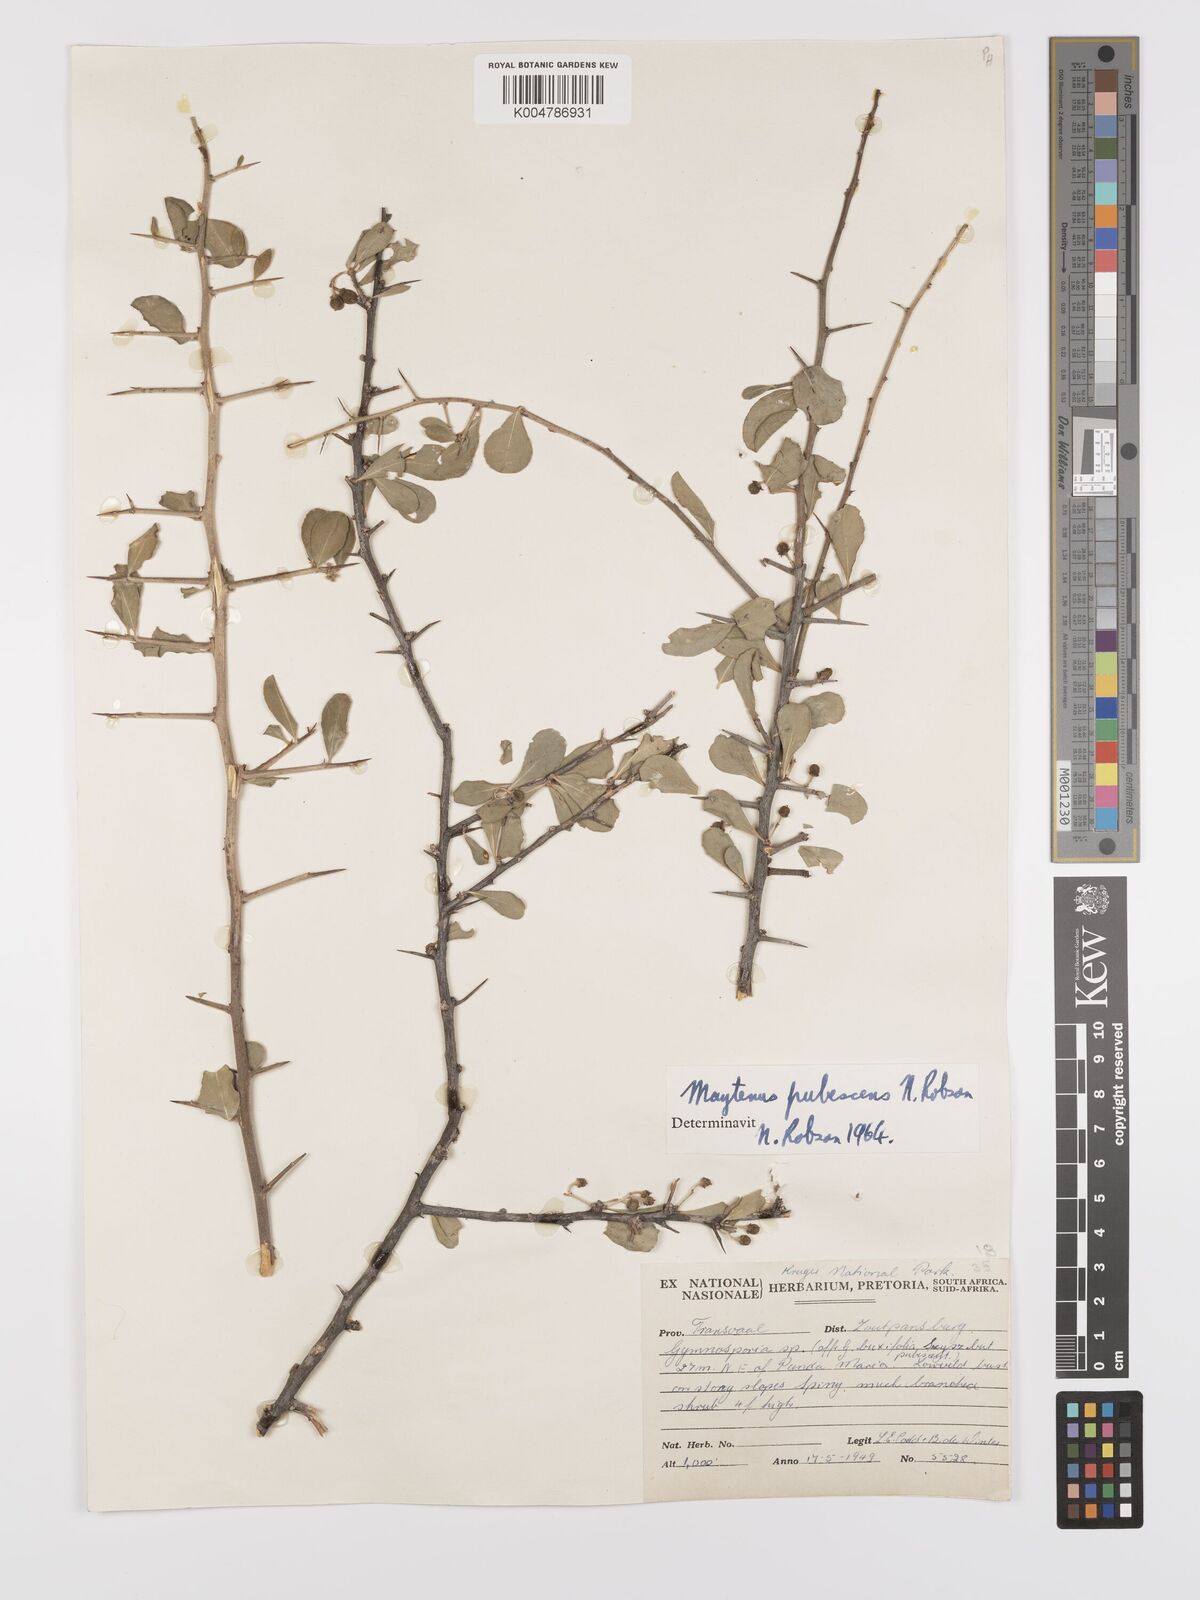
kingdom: Plantae
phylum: Tracheophyta
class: Magnoliopsida
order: Celastrales
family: Celastraceae
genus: Gymnosporia
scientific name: Gymnosporia pubescens
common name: Hairy spike-thorn
